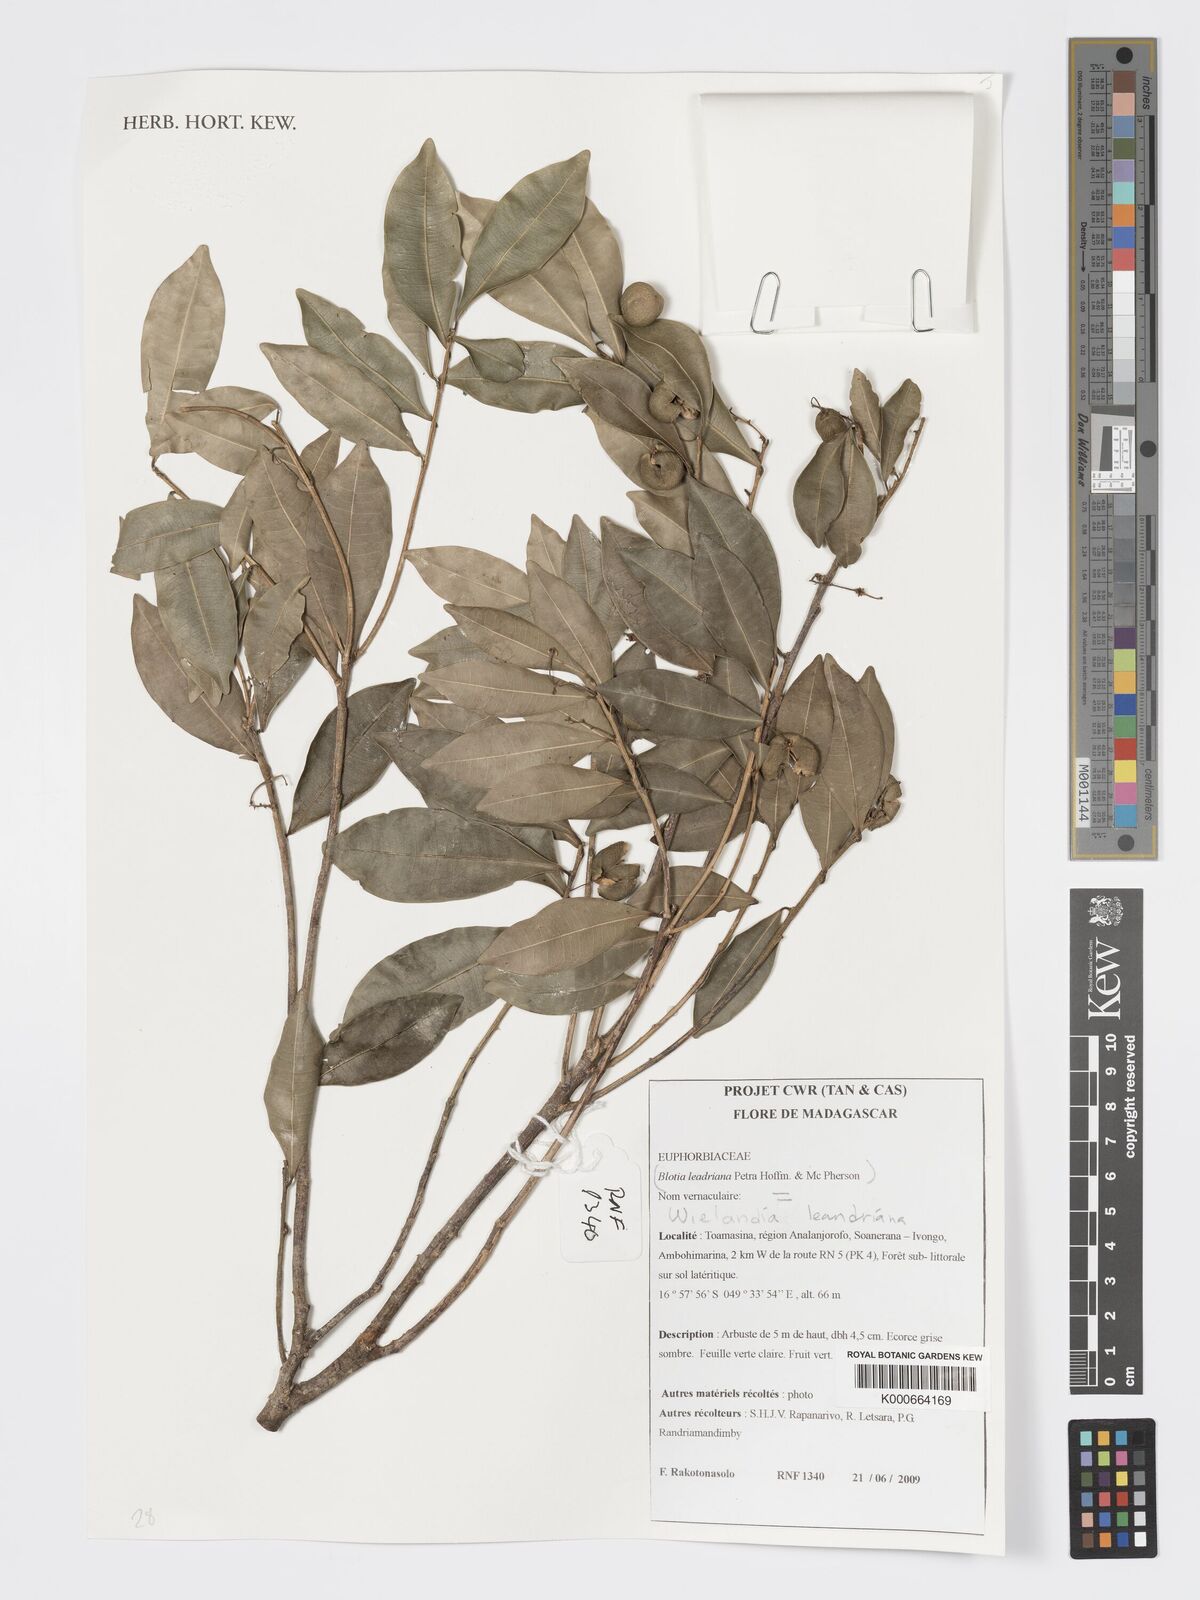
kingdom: Plantae
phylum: Tracheophyta
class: Magnoliopsida
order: Malpighiales
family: Phyllanthaceae
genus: Wielandia
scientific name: Wielandia leandriana
